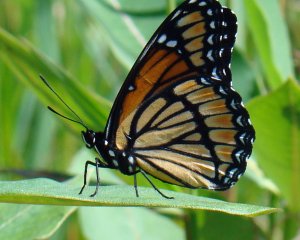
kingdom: Animalia
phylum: Arthropoda
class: Insecta
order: Lepidoptera
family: Nymphalidae
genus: Limenitis
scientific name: Limenitis archippus
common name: Viceroy
